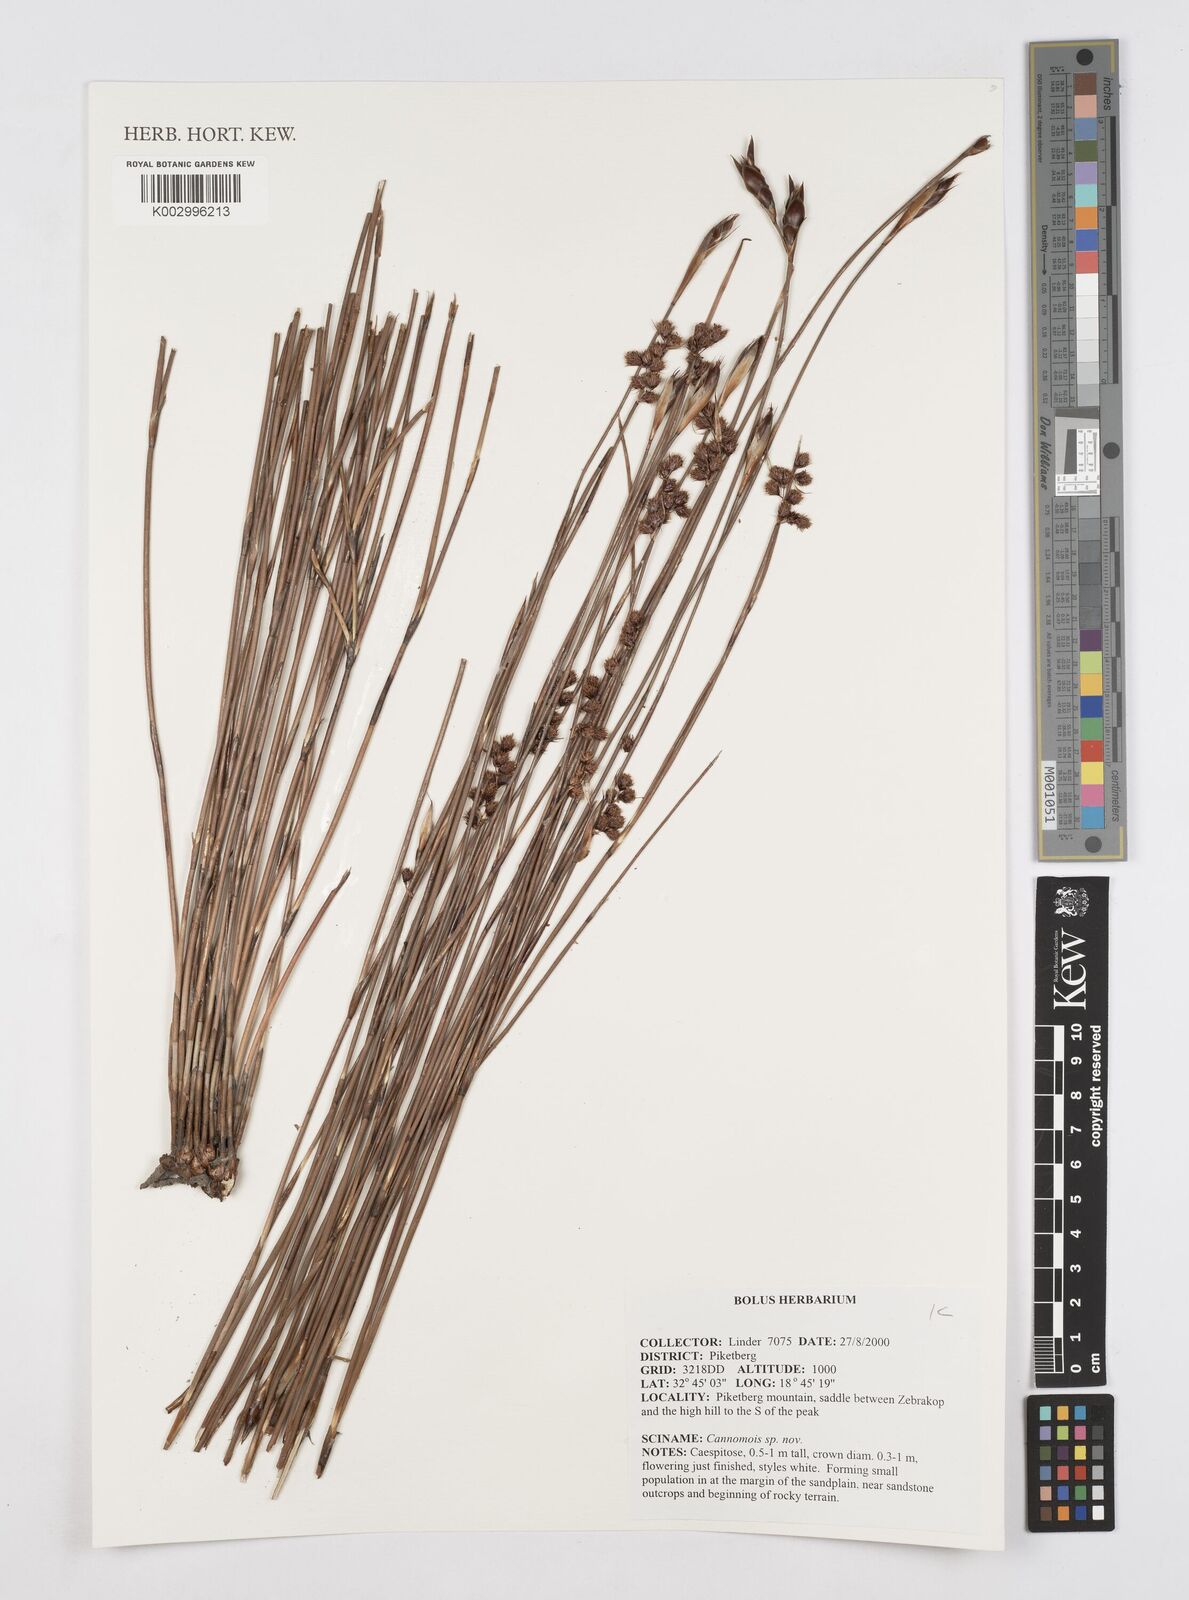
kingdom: Plantae
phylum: Tracheophyta
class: Liliopsida
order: Poales
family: Restionaceae
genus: Cannomois
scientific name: Cannomois
